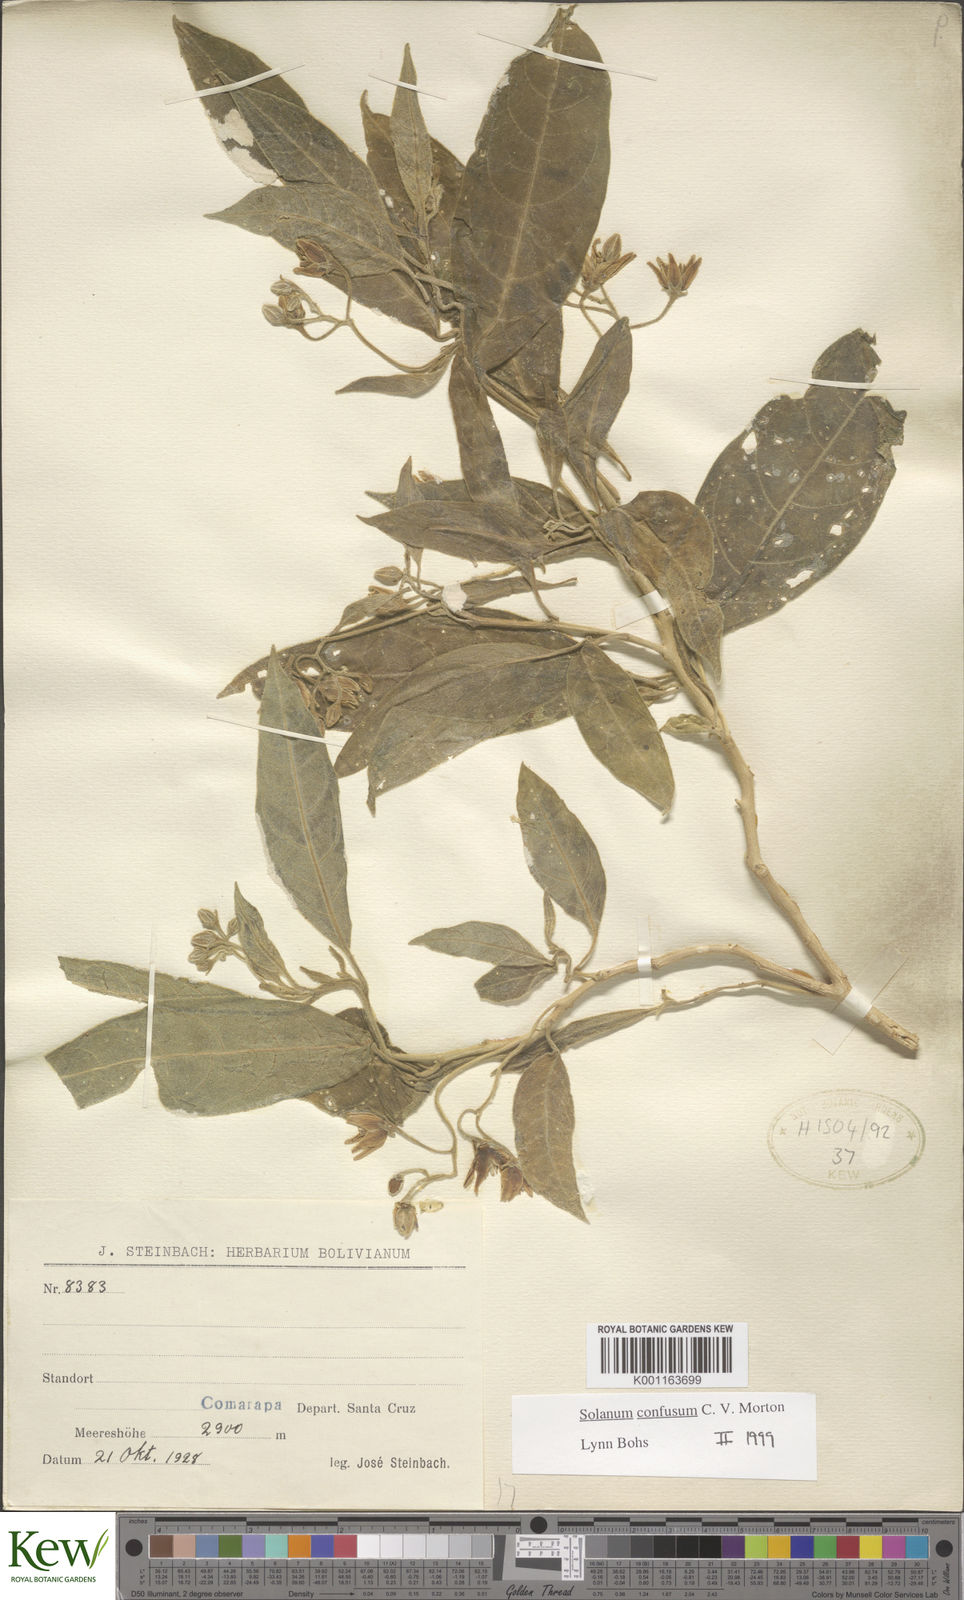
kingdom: Plantae
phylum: Tracheophyta
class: Magnoliopsida
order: Solanales
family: Solanaceae
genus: Solanum
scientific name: Solanum confusum
